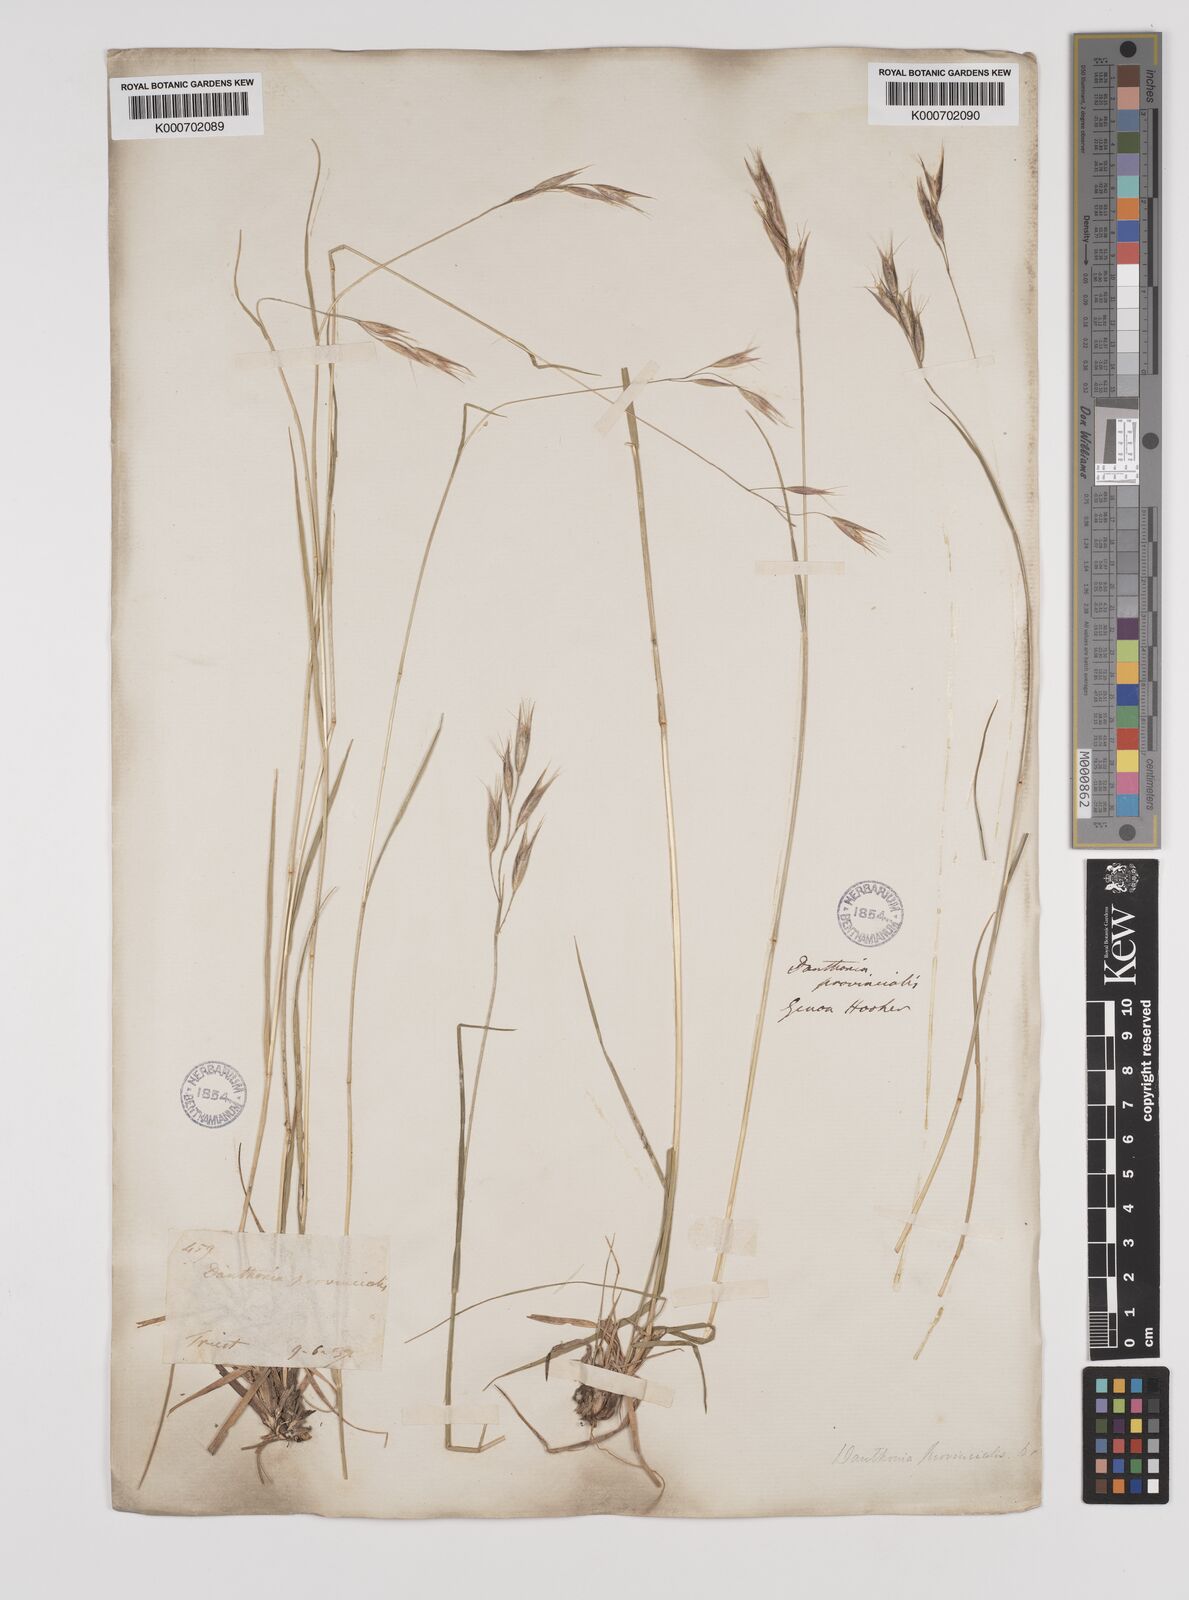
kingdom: Plantae
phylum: Tracheophyta
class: Liliopsida
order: Poales
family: Poaceae
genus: Danthonia
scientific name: Danthonia alpina
